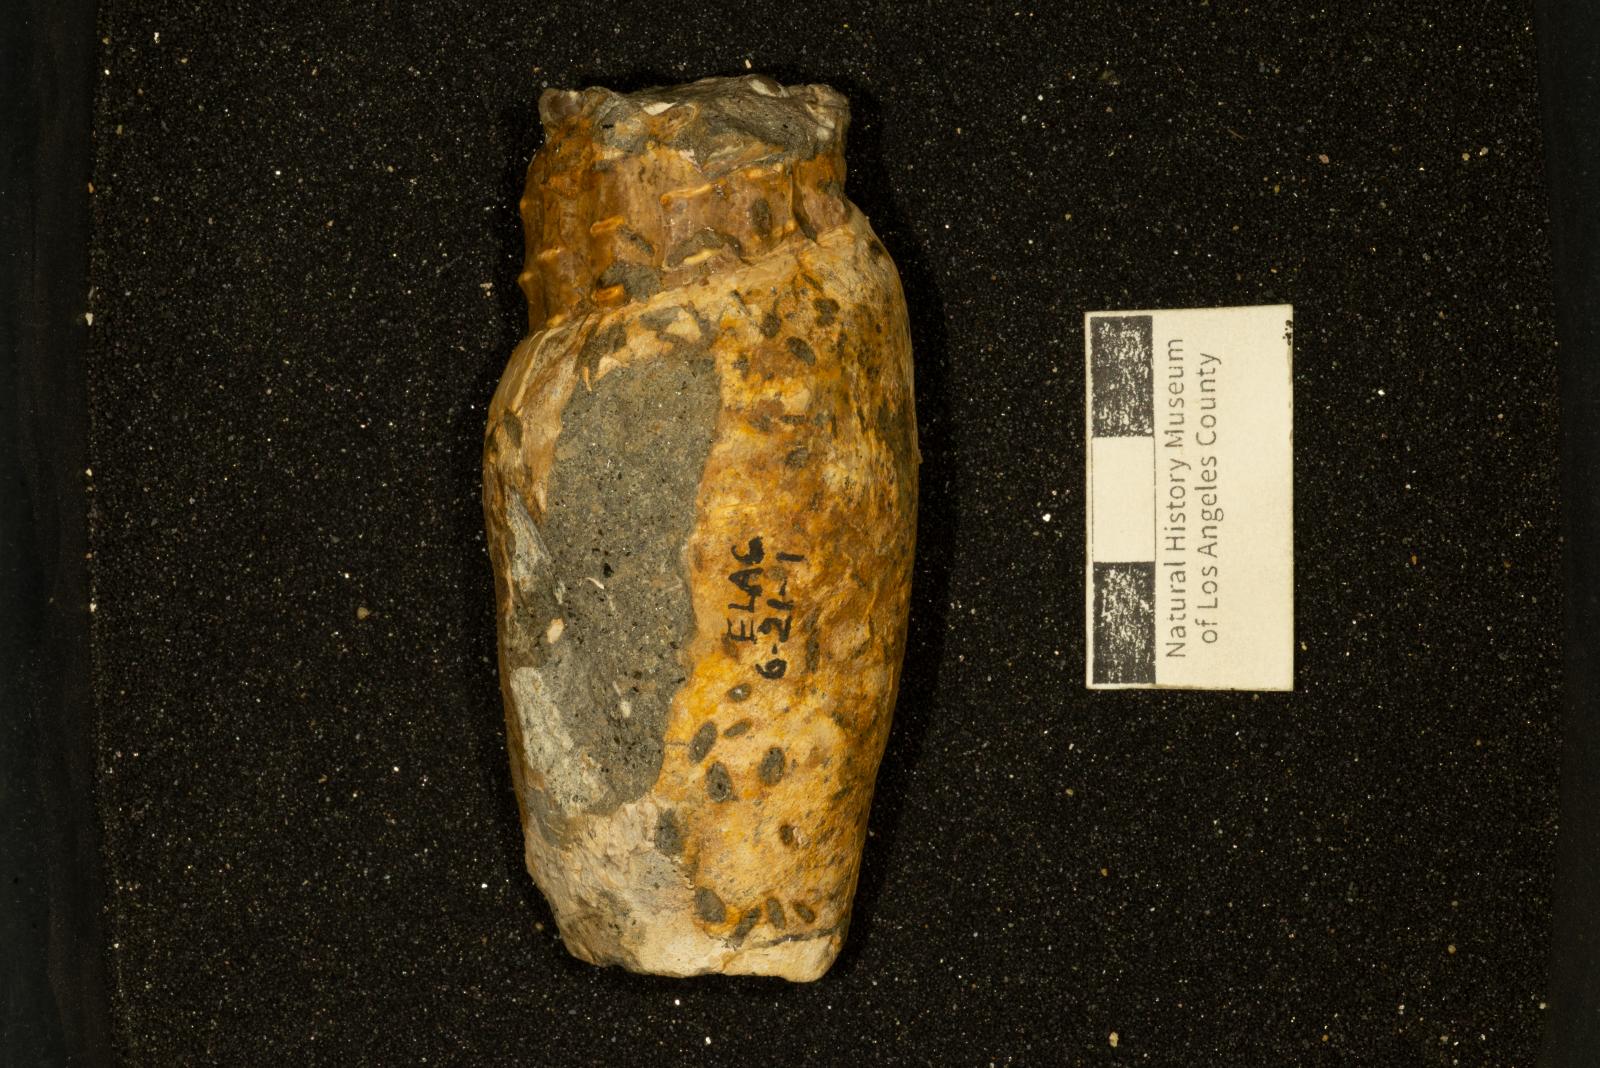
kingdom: Animalia
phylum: Mollusca
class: Gastropoda
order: Neogastropoda
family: Pholidotomidae
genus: Longoconcha
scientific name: Longoconcha eumeka
